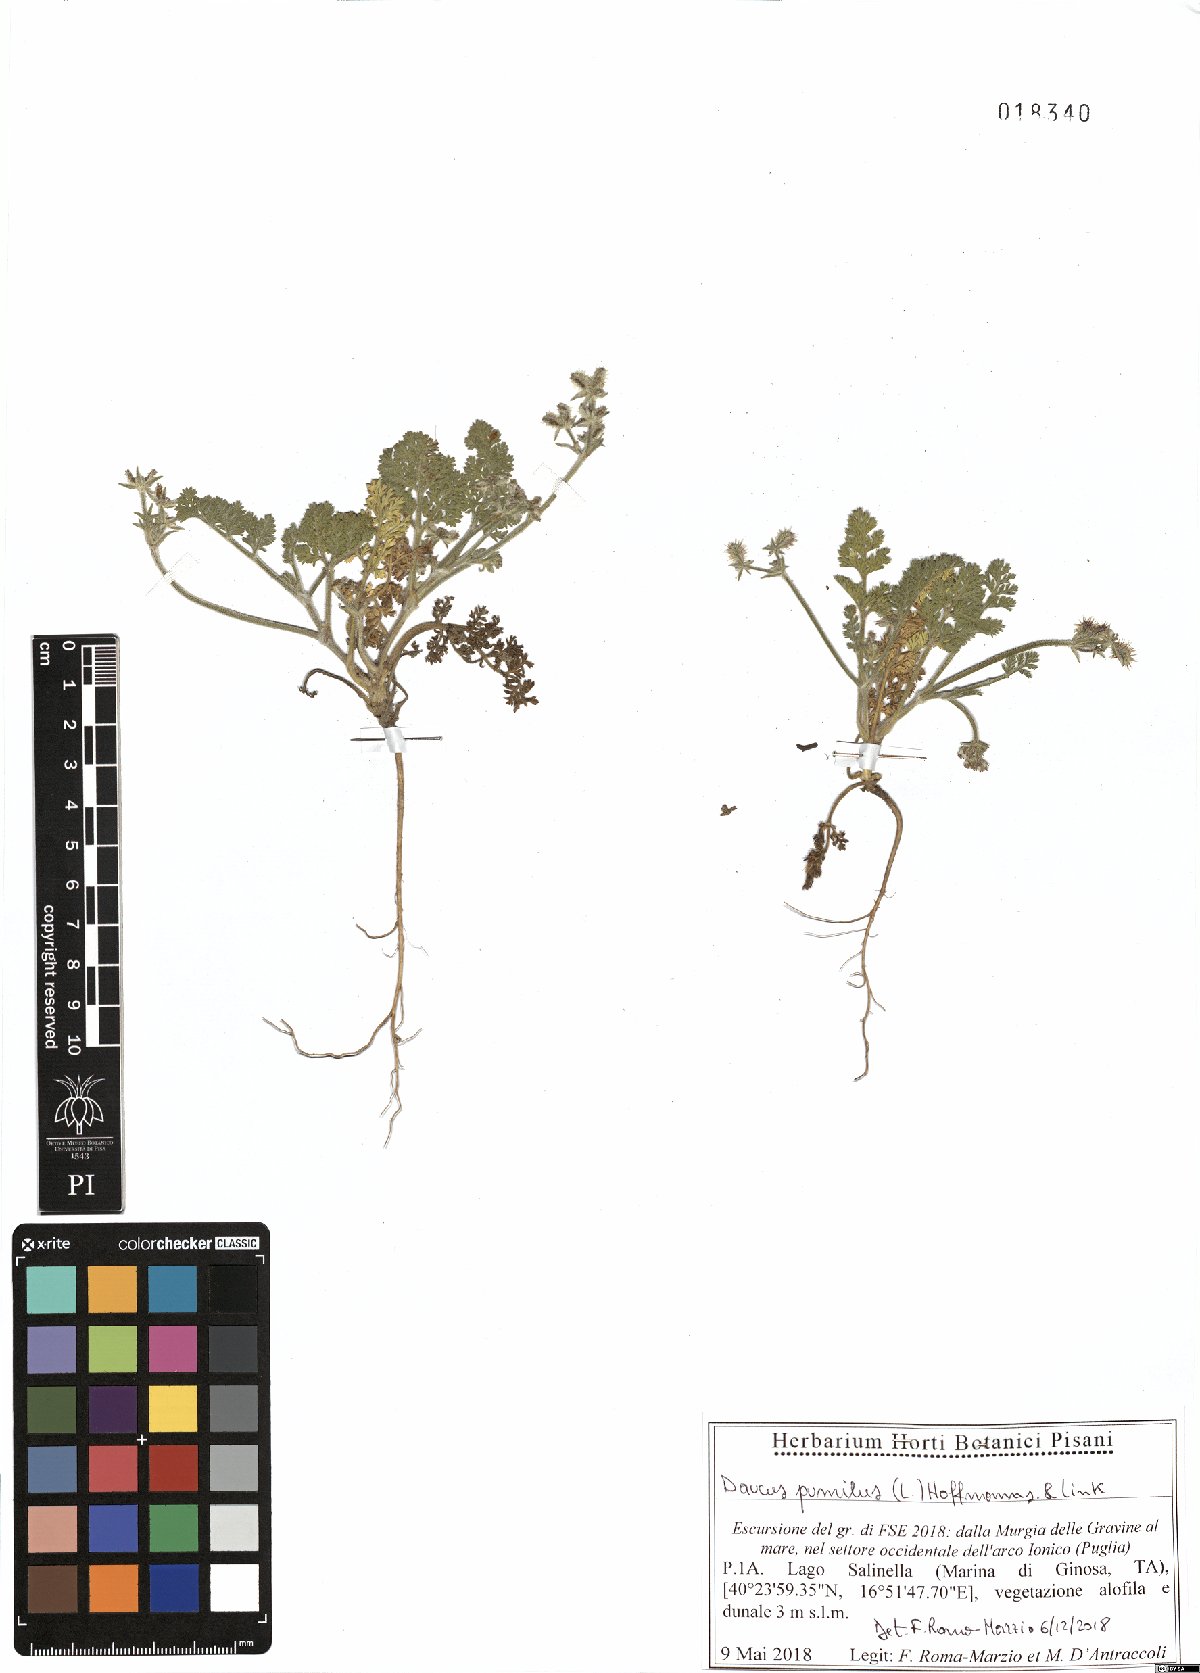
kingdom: Plantae
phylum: Tracheophyta
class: Magnoliopsida
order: Apiales
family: Apiaceae
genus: Daucus
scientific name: Daucus pumilus
